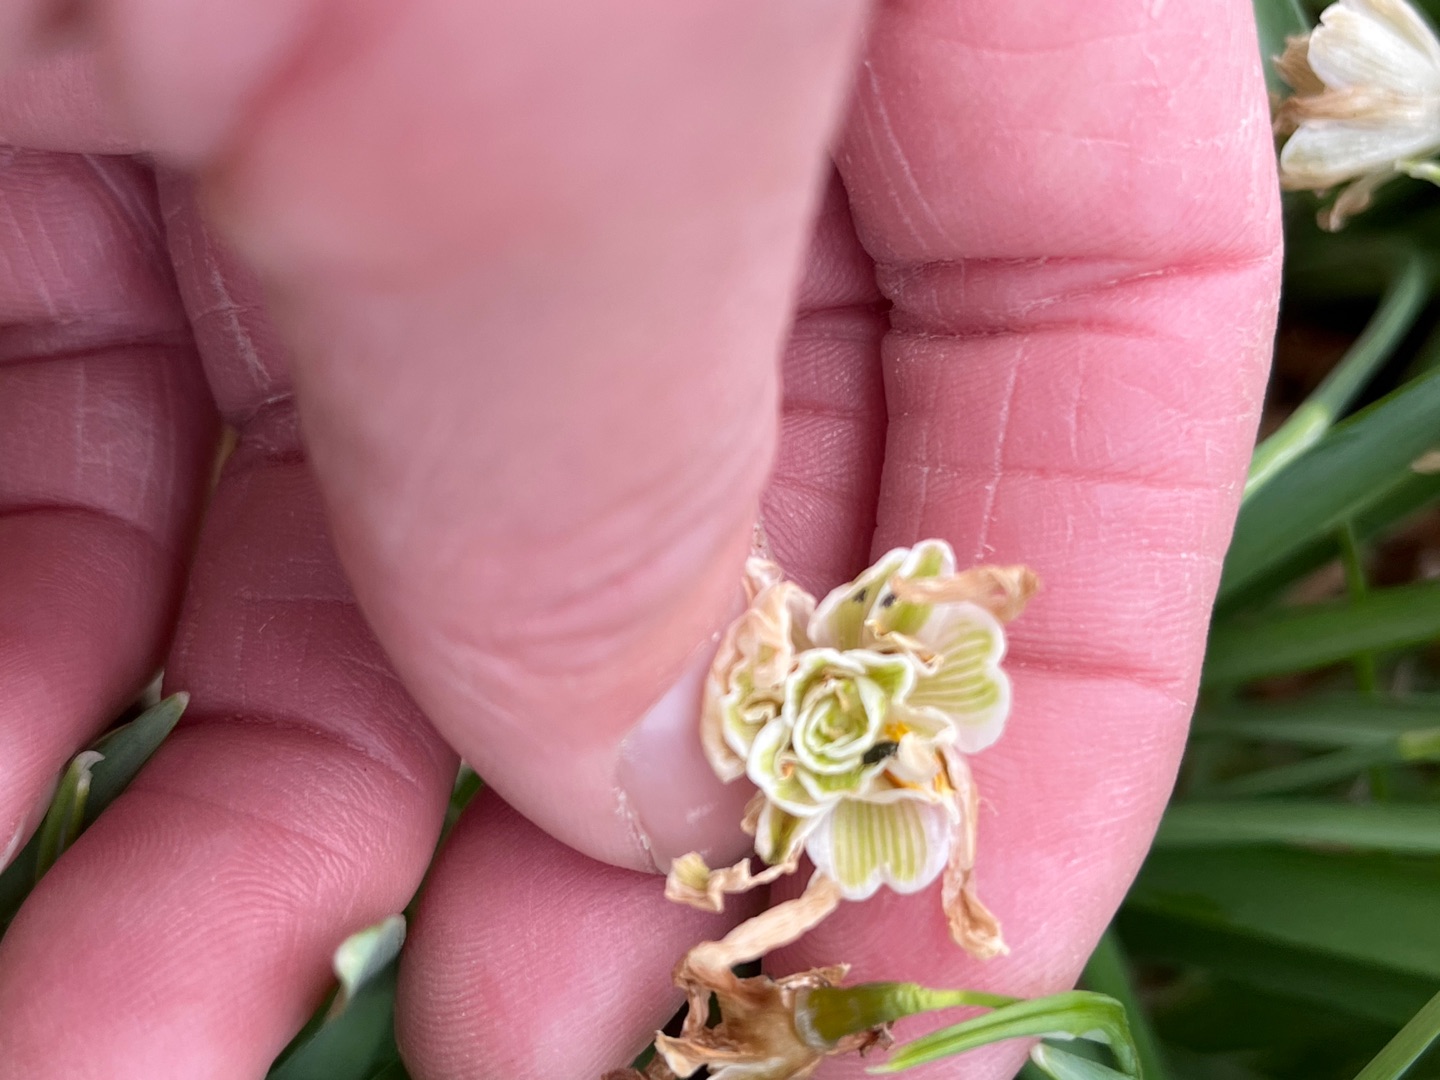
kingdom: Plantae
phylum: Tracheophyta
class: Liliopsida
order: Asparagales
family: Amaryllidaceae
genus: Galanthus
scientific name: Galanthus nivalis
